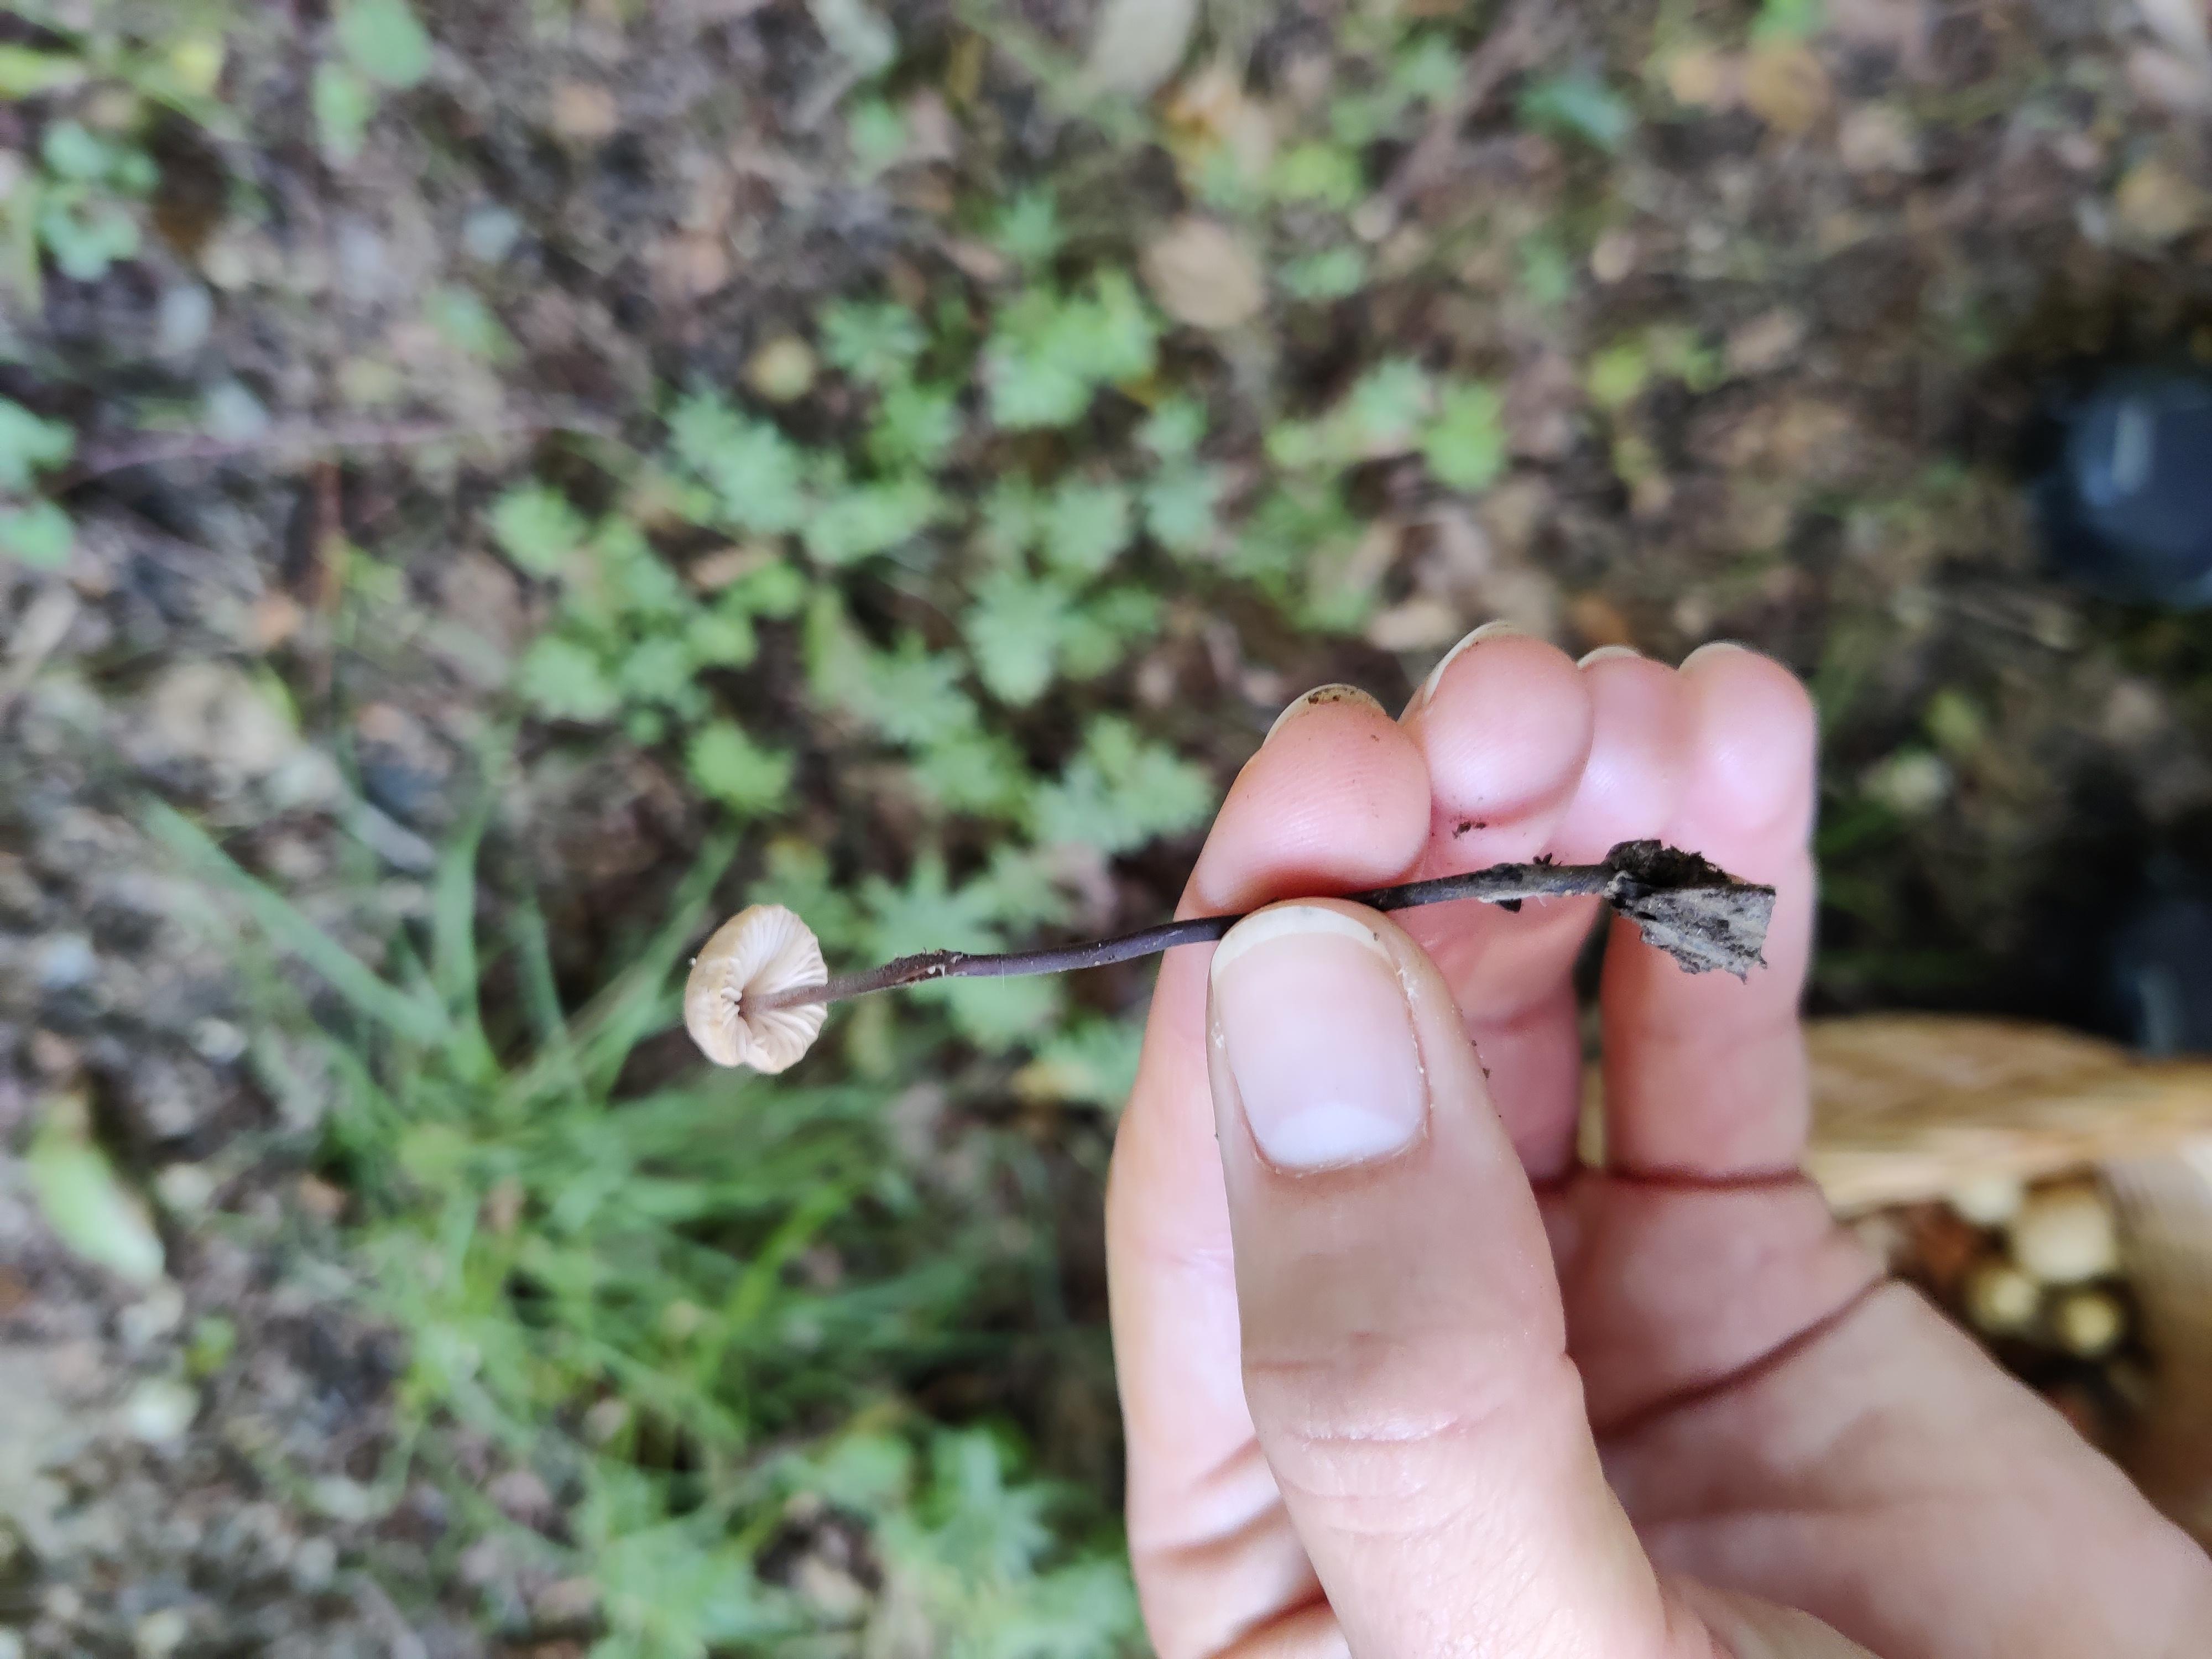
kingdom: Fungi
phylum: Basidiomycota
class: Agaricomycetes
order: Agaricales
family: Omphalotaceae
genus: Mycetinis
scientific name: Mycetinis alliaceus
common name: stor løghat
